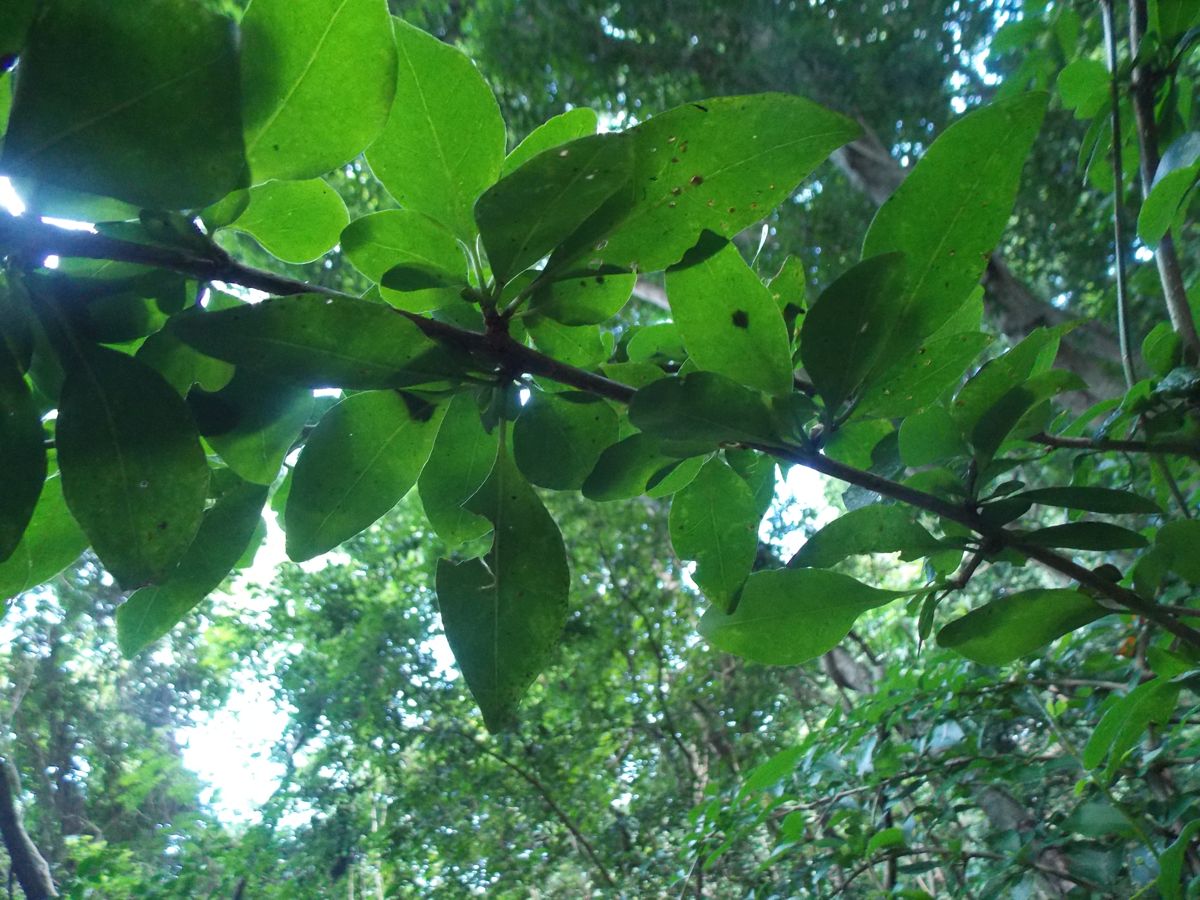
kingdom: Plantae
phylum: Tracheophyta
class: Magnoliopsida
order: Caryophyllales
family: Nyctaginaceae
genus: Pisonia
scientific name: Pisonia donnellsmithii
